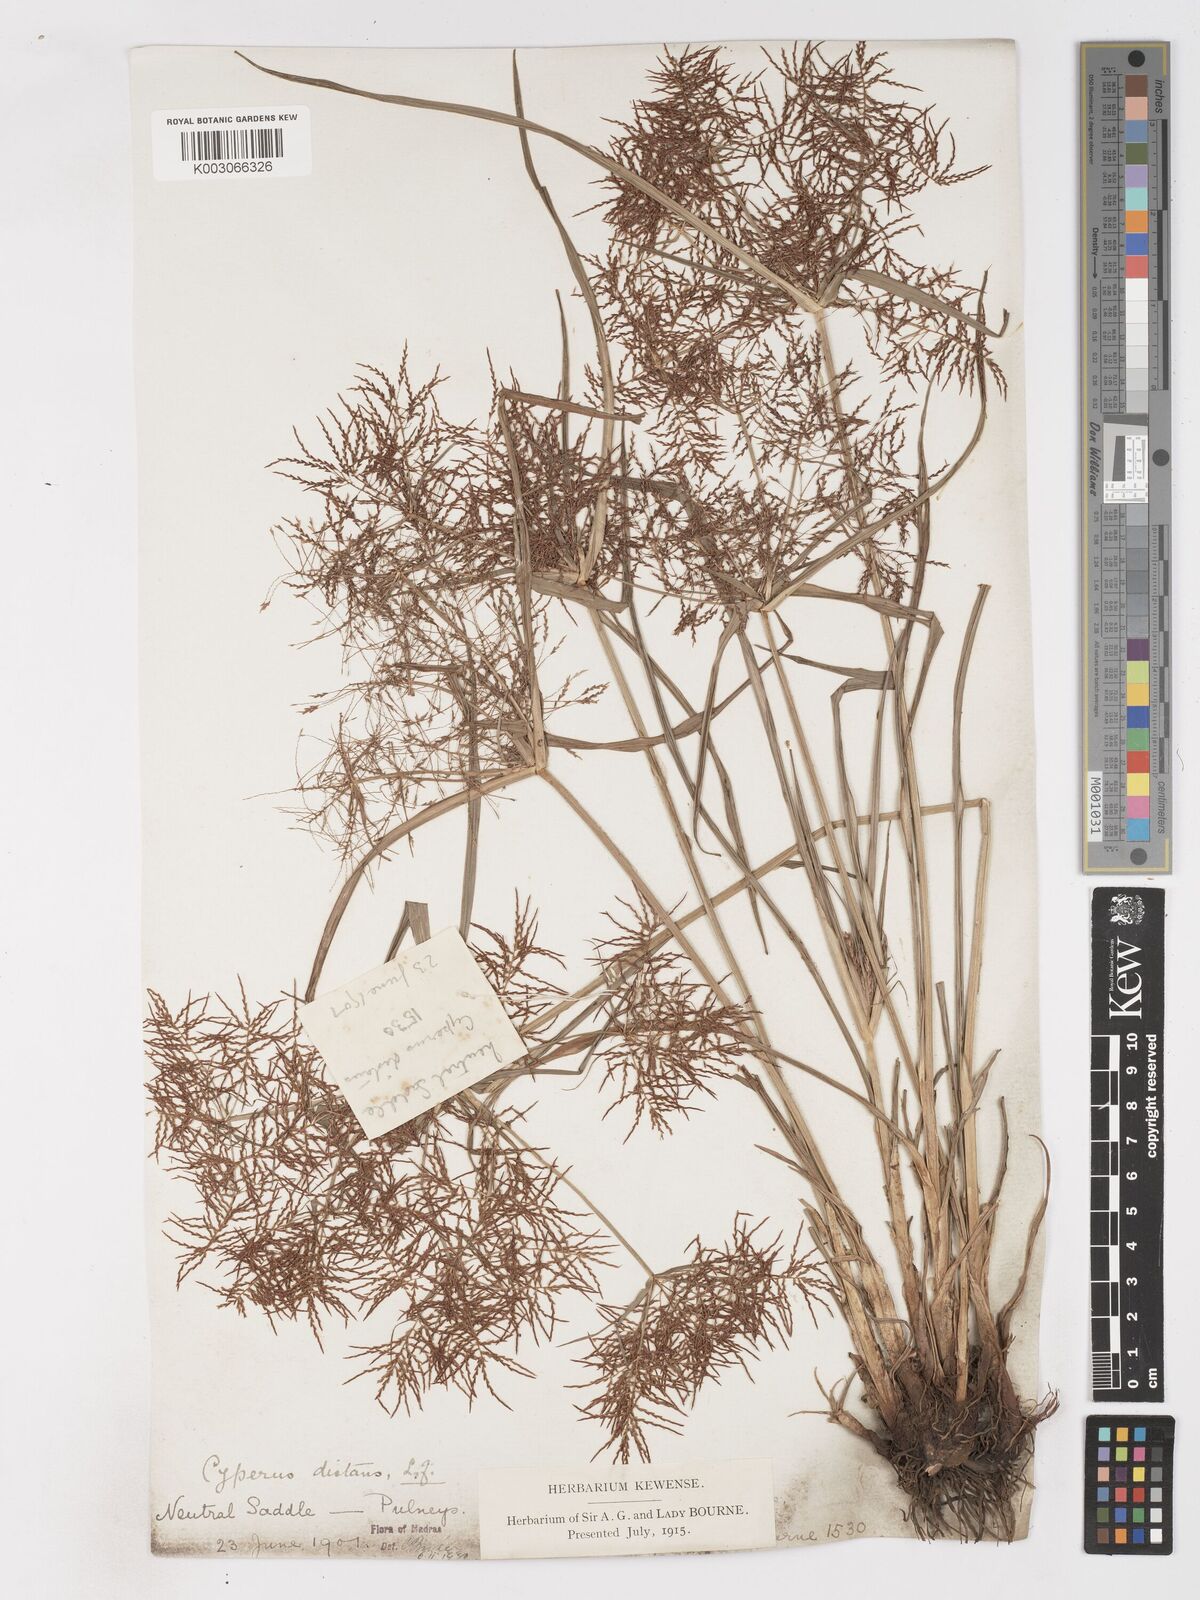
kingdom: Plantae
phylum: Tracheophyta
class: Liliopsida
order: Poales
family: Cyperaceae
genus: Cyperus
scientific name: Cyperus distans
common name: Slender cyperus
